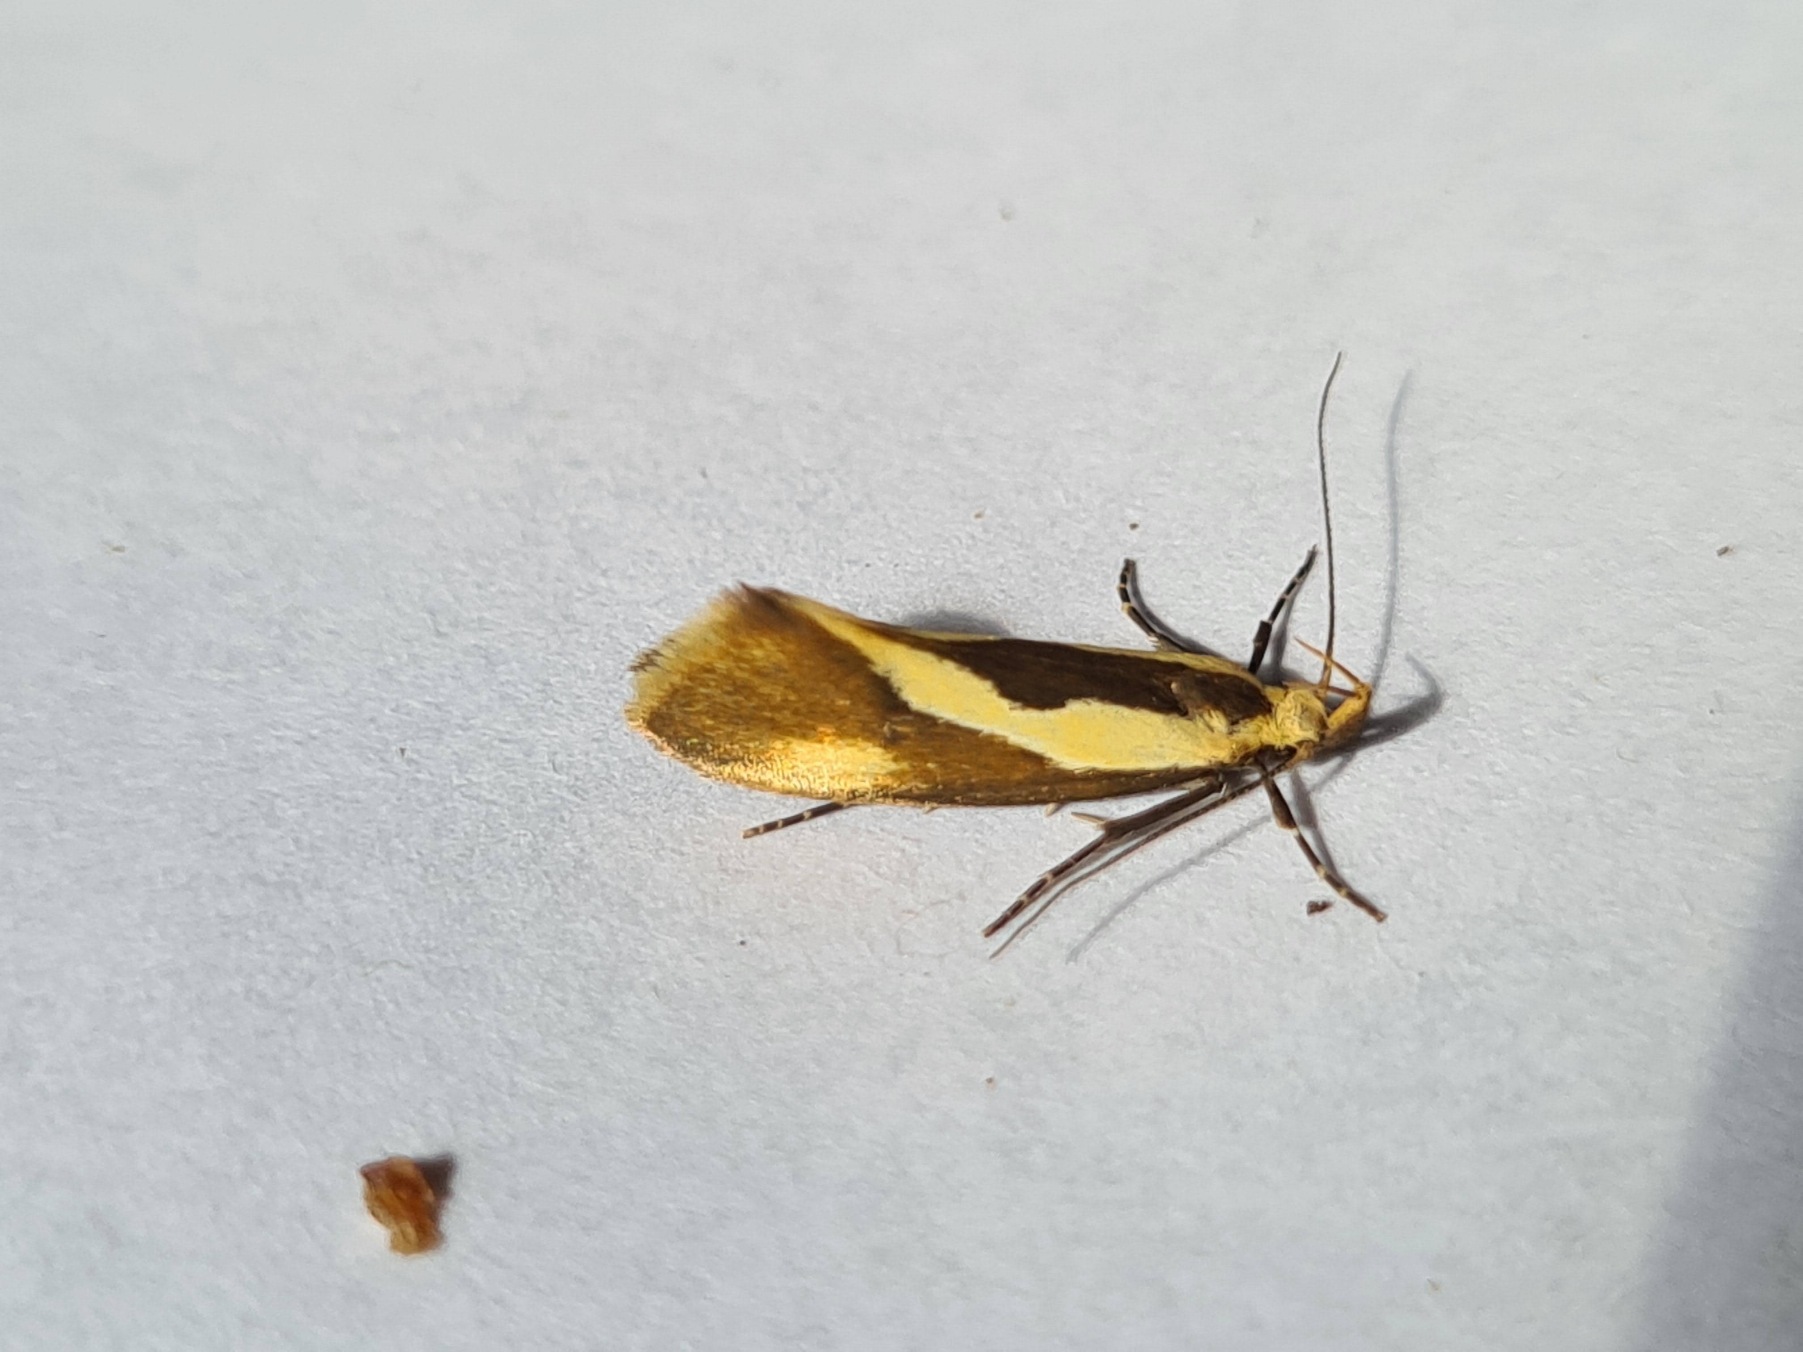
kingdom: Animalia
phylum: Arthropoda
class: Insecta
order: Lepidoptera
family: Oecophoridae
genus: Harpella
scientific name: Harpella forficella
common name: Kæmpeprydvinge
